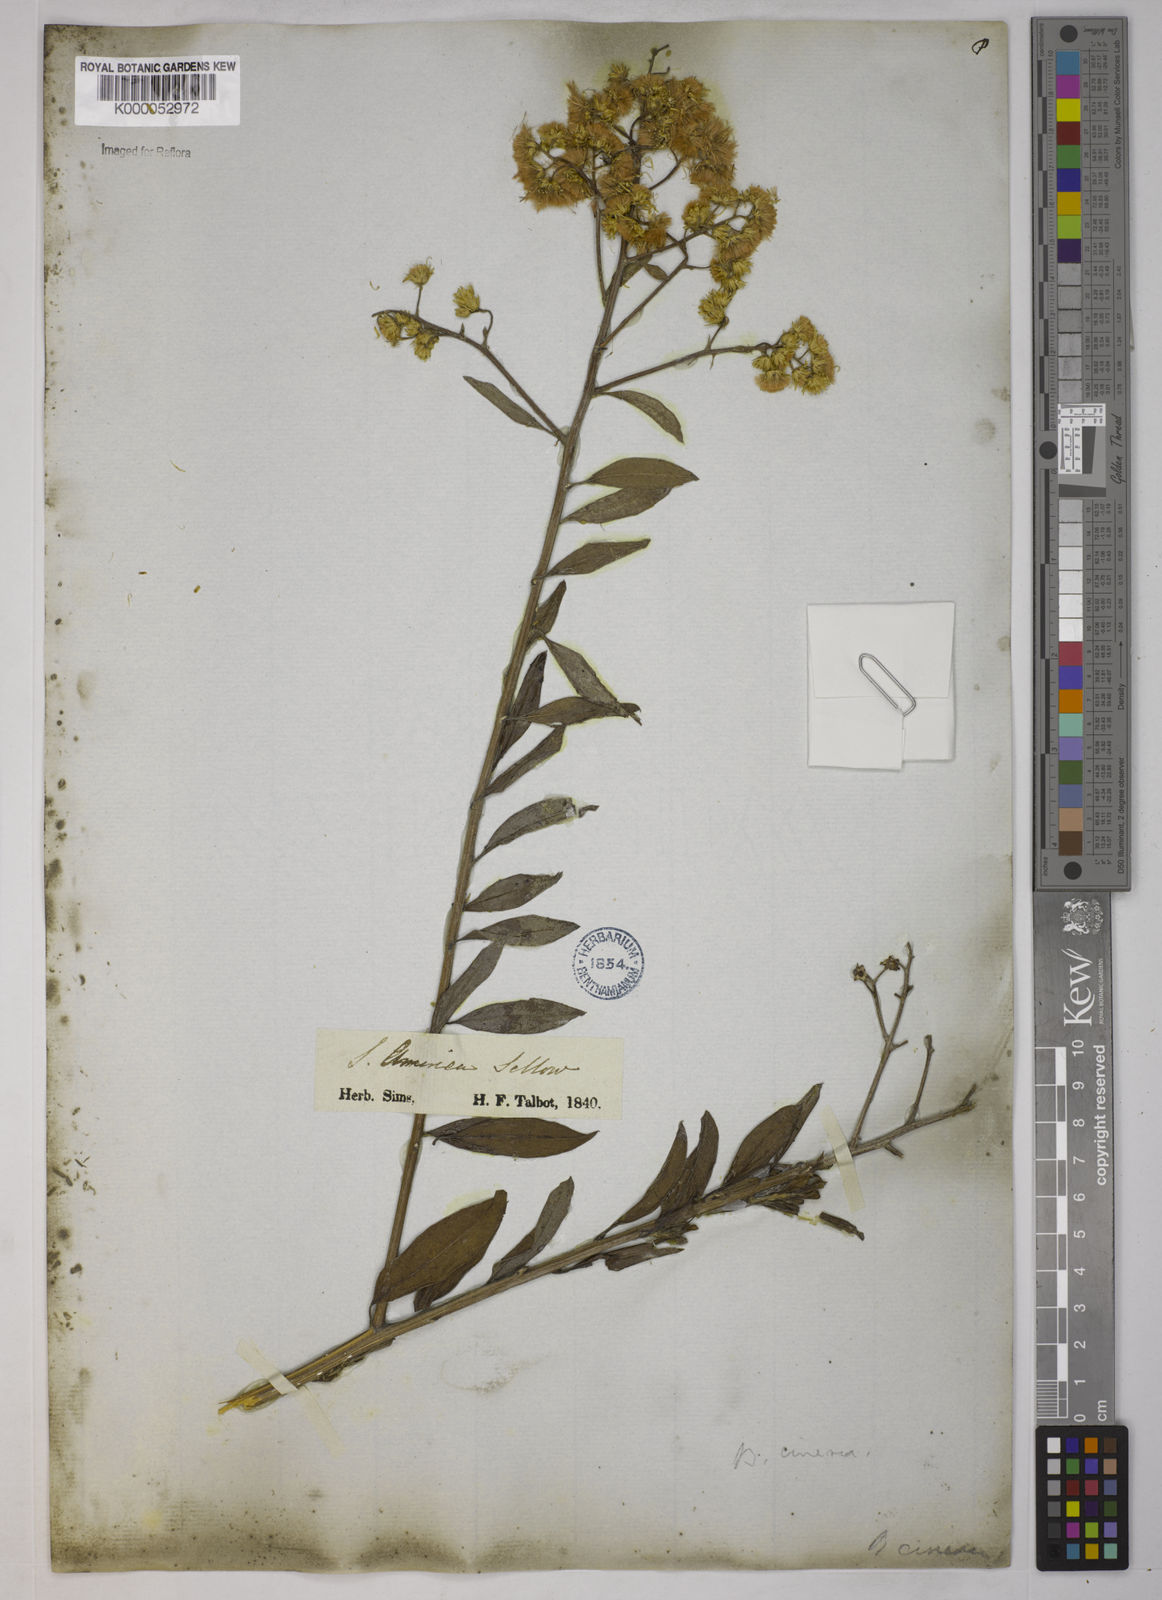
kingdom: Plantae
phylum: Tracheophyta
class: Magnoliopsida
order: Asterales
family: Asteraceae
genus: Baccharis
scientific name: Baccharis trinervis
